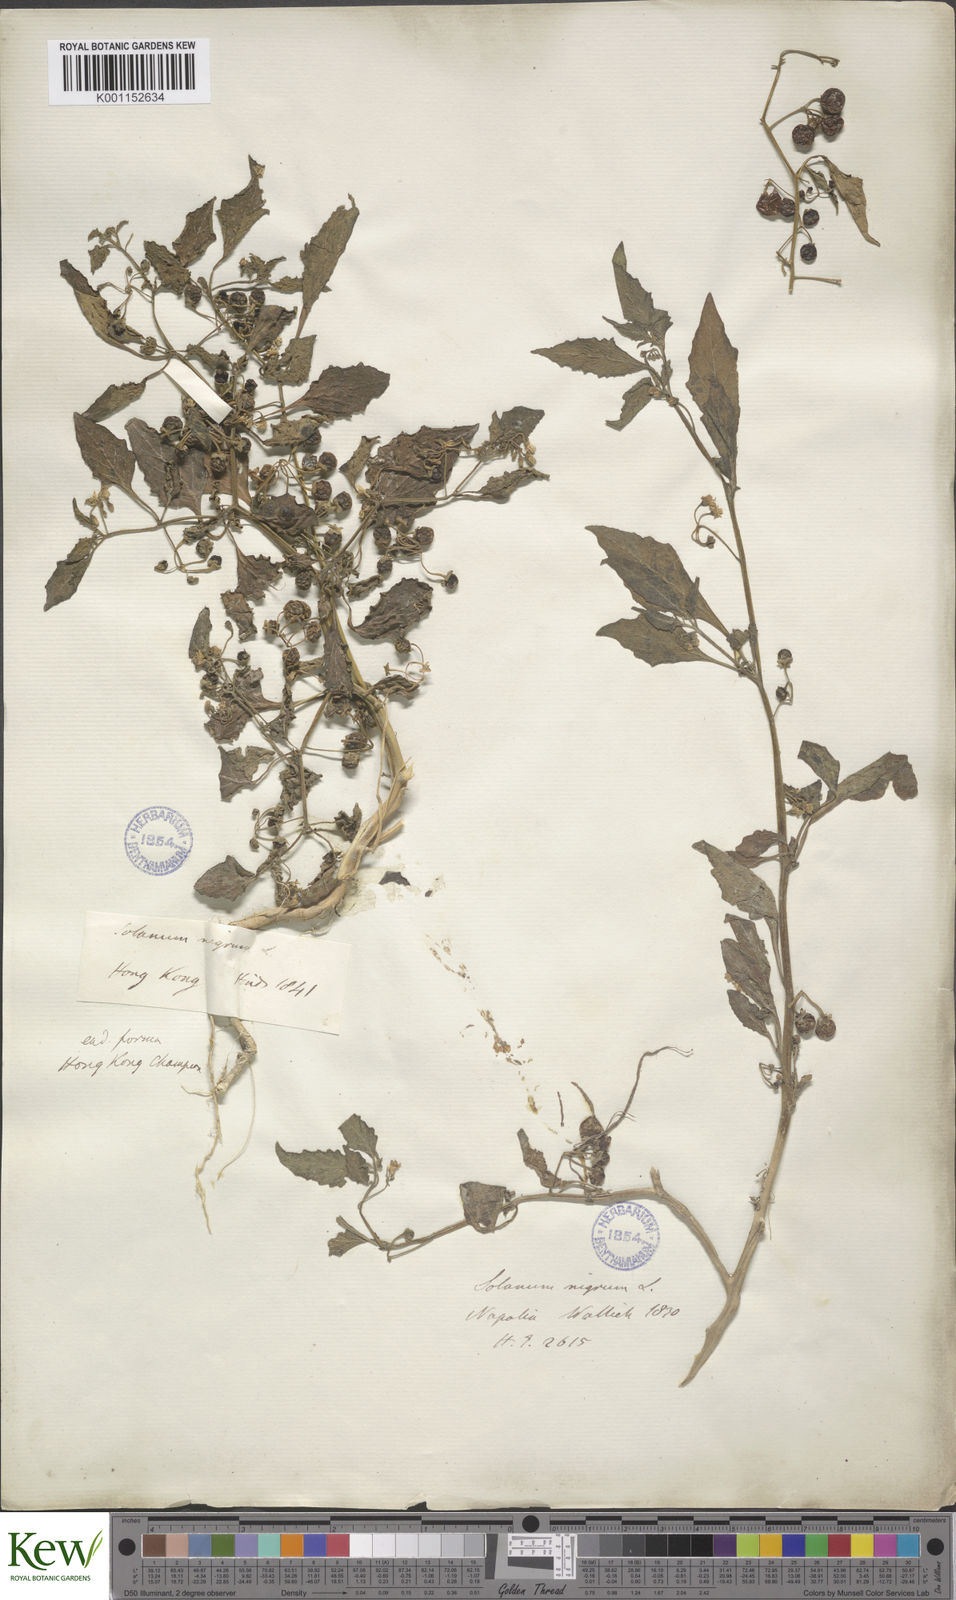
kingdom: Plantae
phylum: Tracheophyta
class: Magnoliopsida
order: Solanales
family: Solanaceae
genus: Solanum
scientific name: Solanum nigrum
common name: Black nightshade
